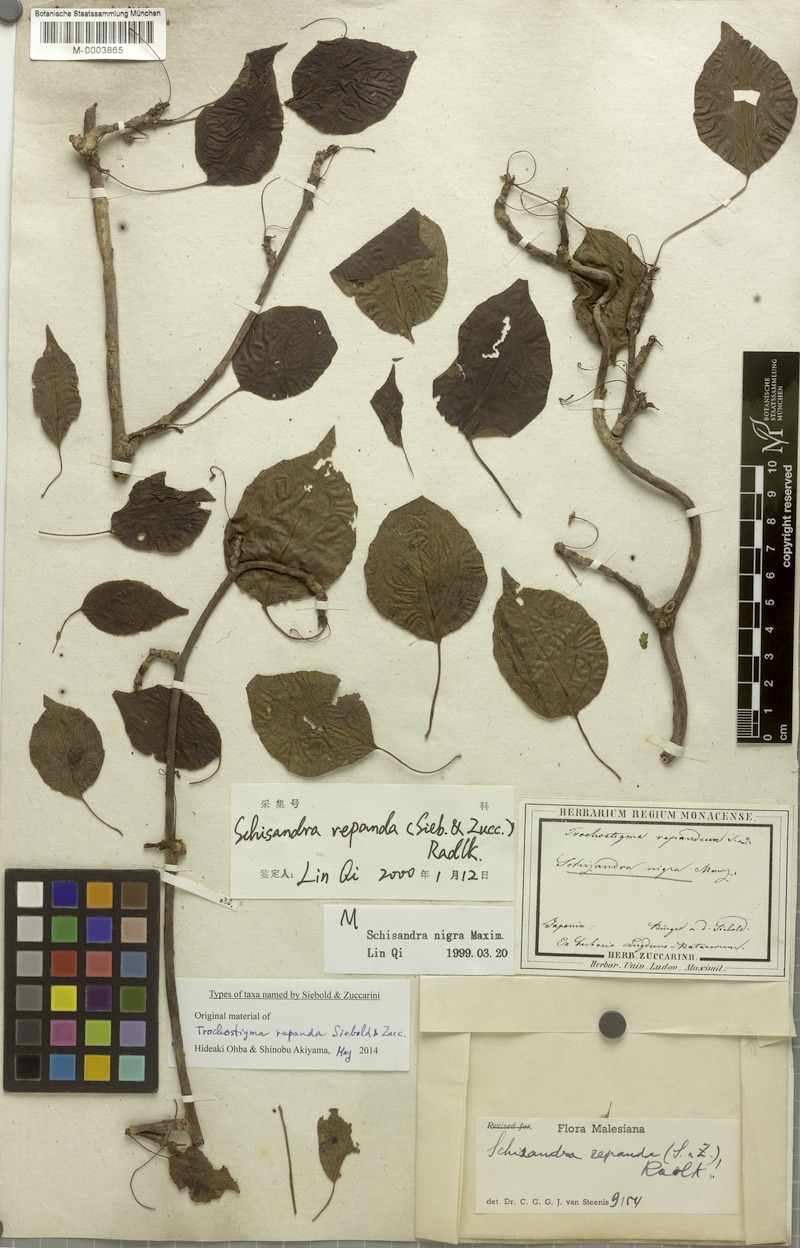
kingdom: Plantae
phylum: Tracheophyta
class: Magnoliopsida
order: Austrobaileyales
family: Schisandraceae
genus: Schisandra
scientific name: Schisandra repanda
